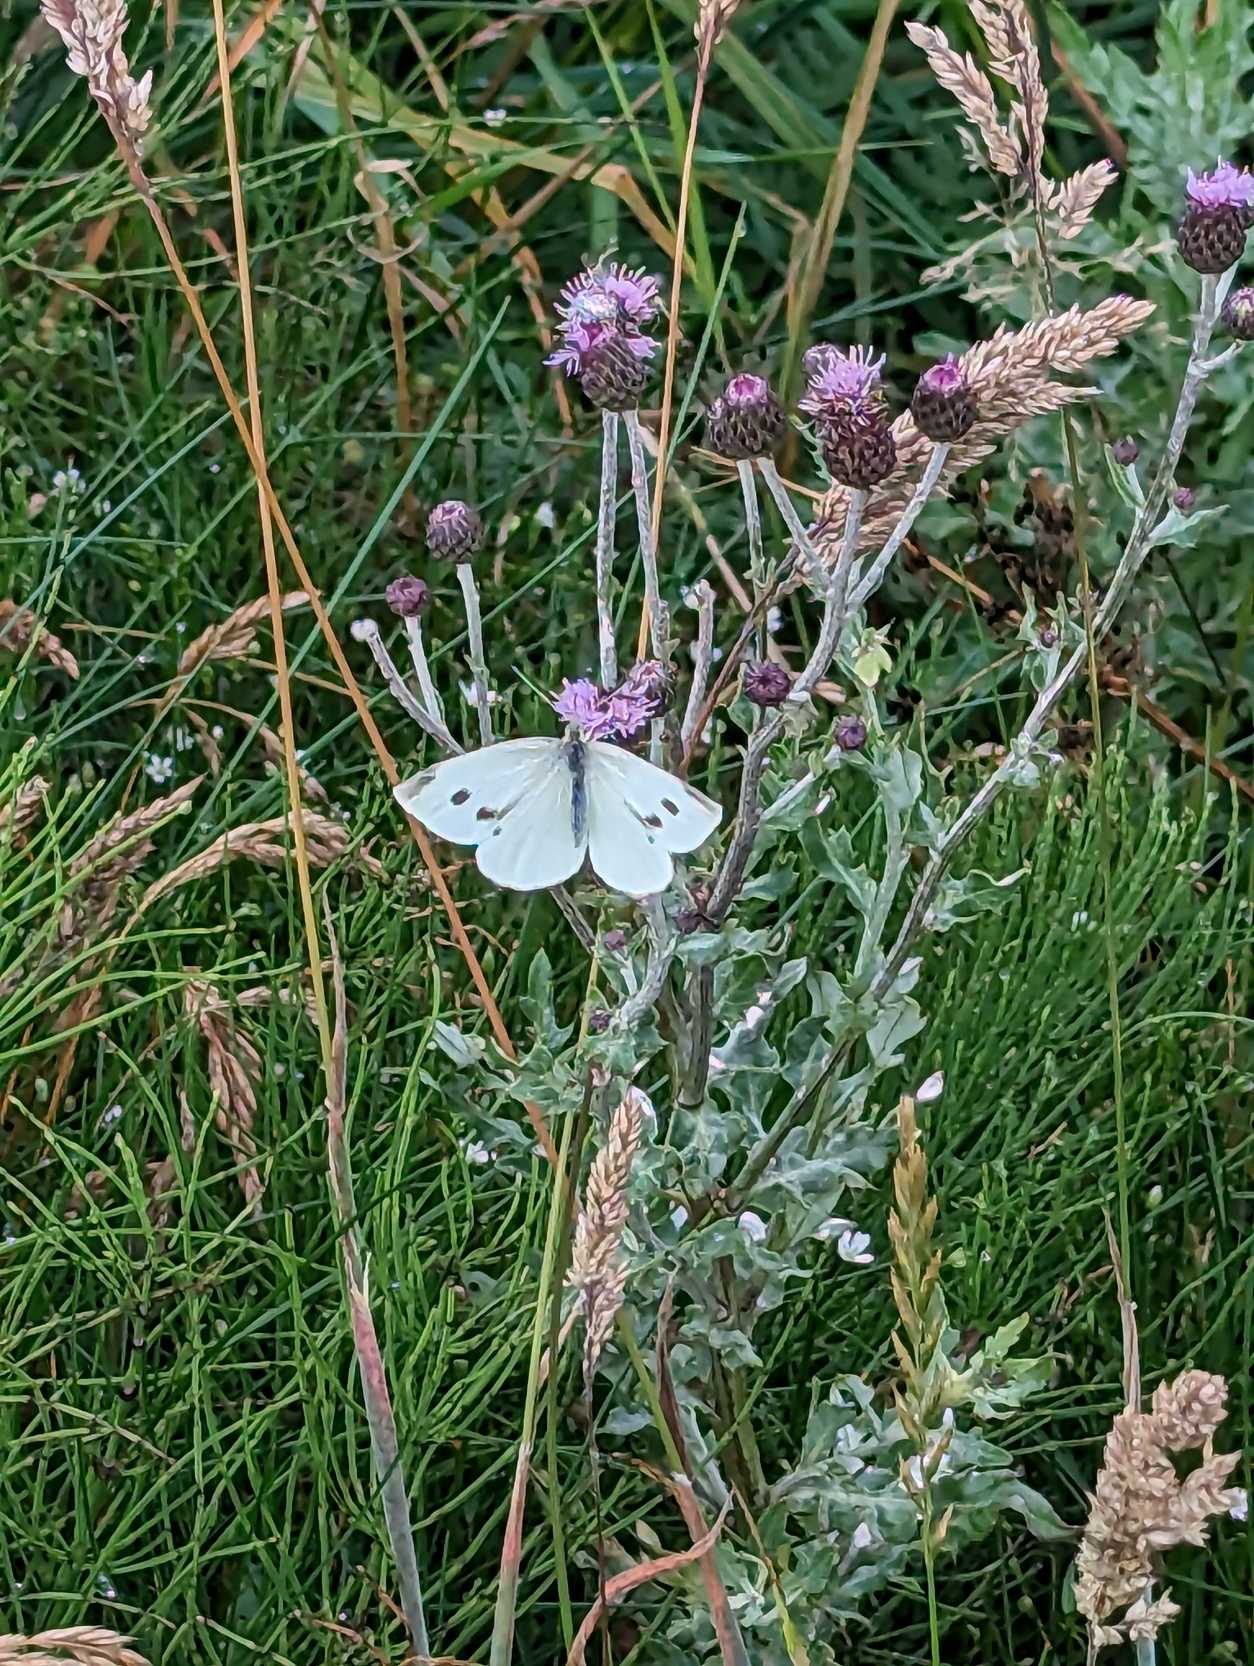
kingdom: Animalia
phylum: Arthropoda
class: Insecta
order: Lepidoptera
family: Pieridae
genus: Pieris
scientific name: Pieris rapae
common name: Lille kålsommerfugl
